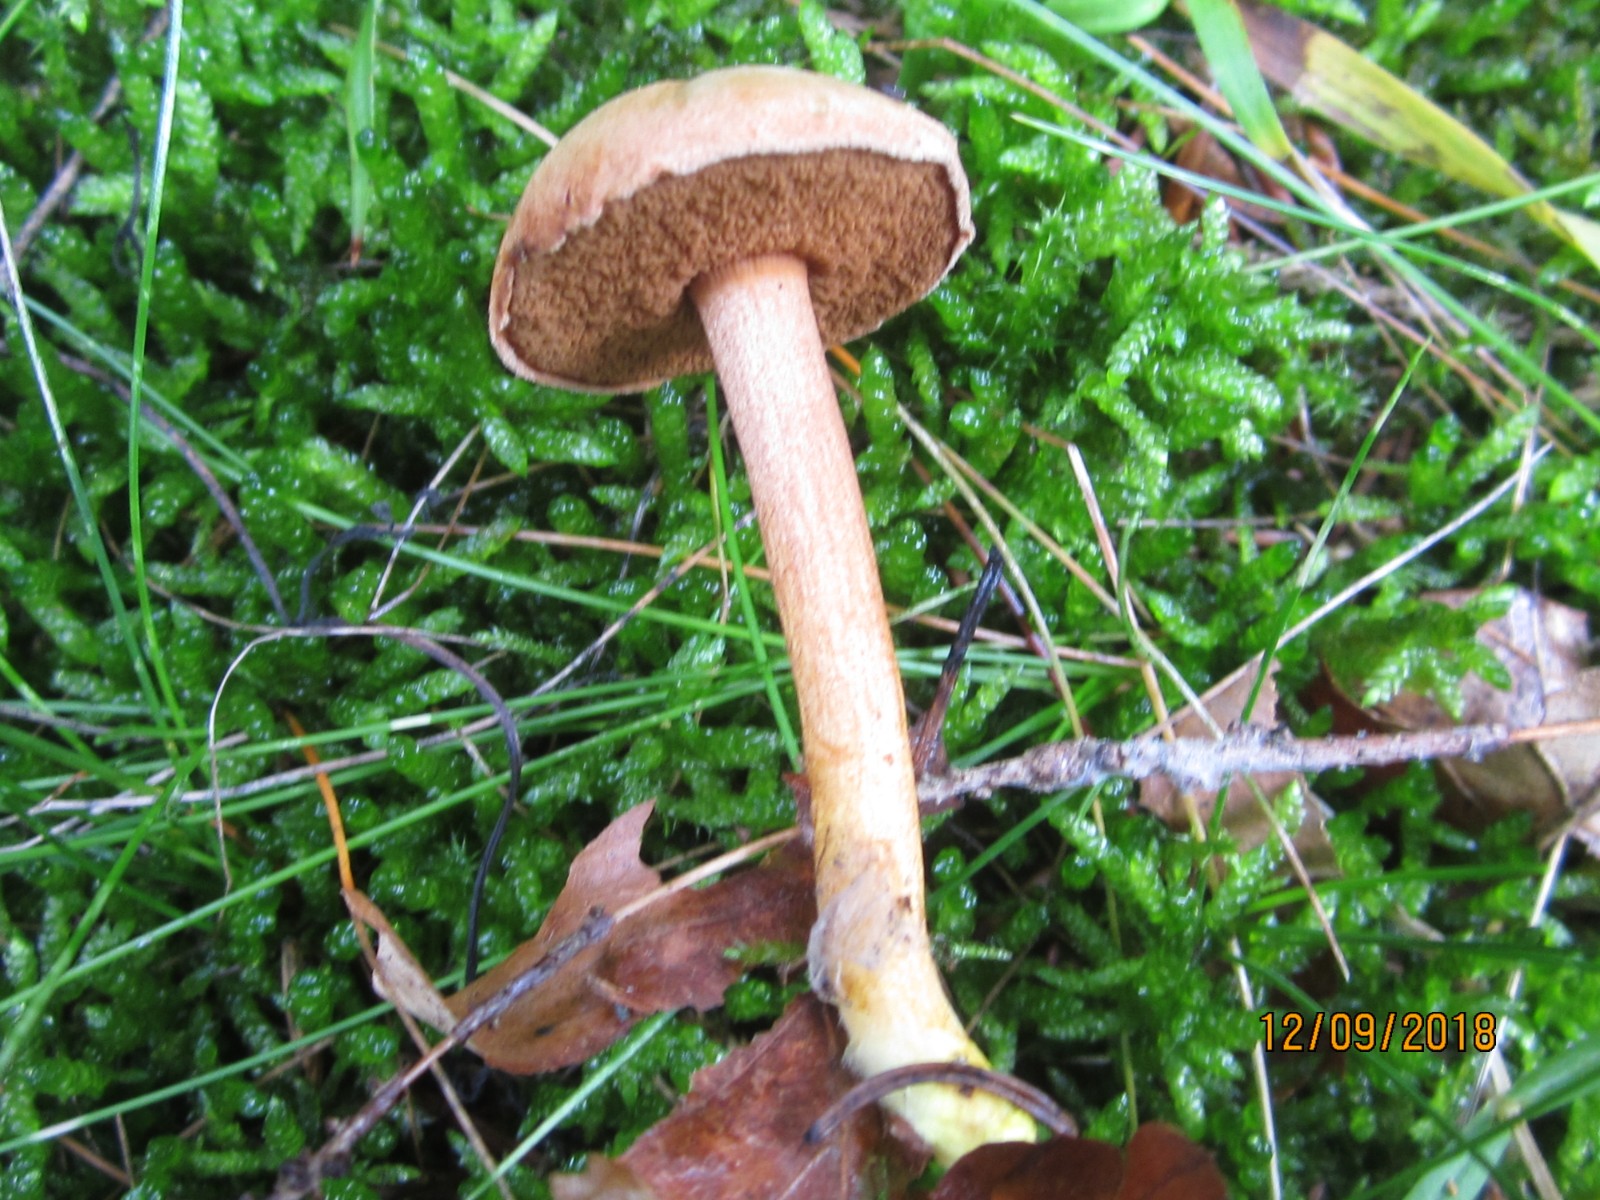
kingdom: Fungi
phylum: Basidiomycota
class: Agaricomycetes
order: Boletales
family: Boletaceae
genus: Chalciporus
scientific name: Chalciporus piperatus
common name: peberrørhat
